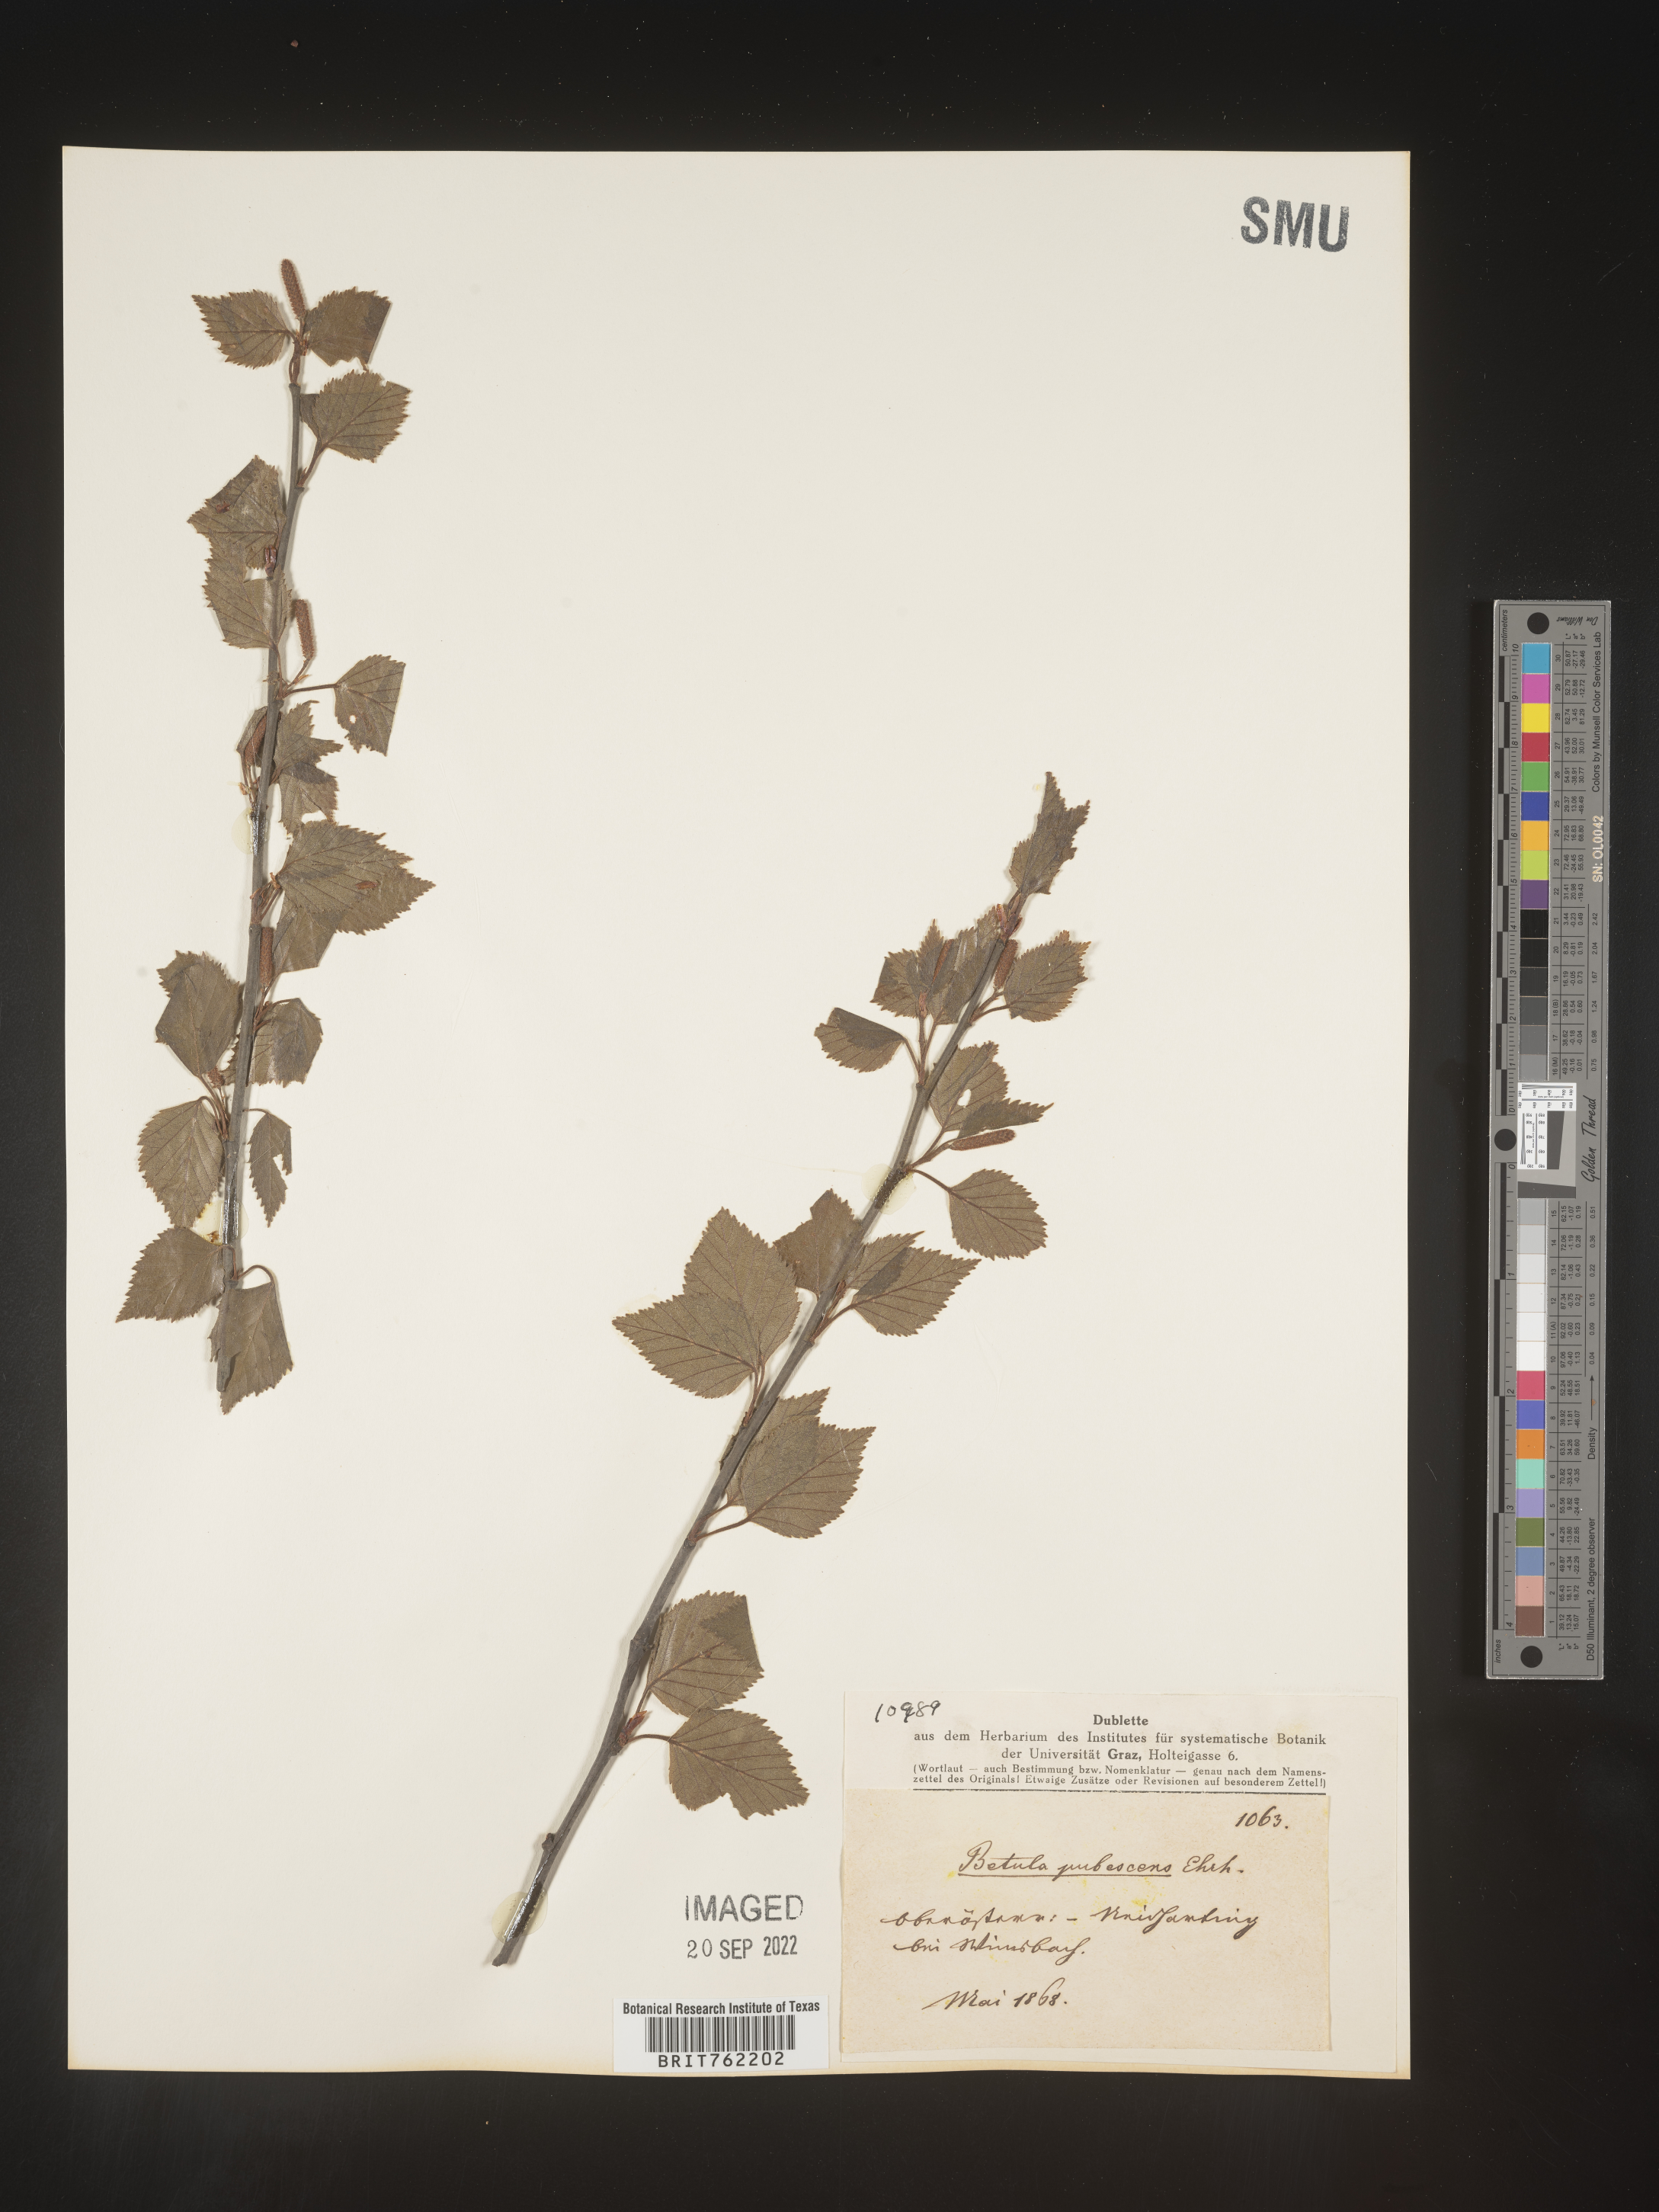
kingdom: Plantae
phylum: Tracheophyta
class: Magnoliopsida
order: Fagales
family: Betulaceae
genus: Betula
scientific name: Betula
